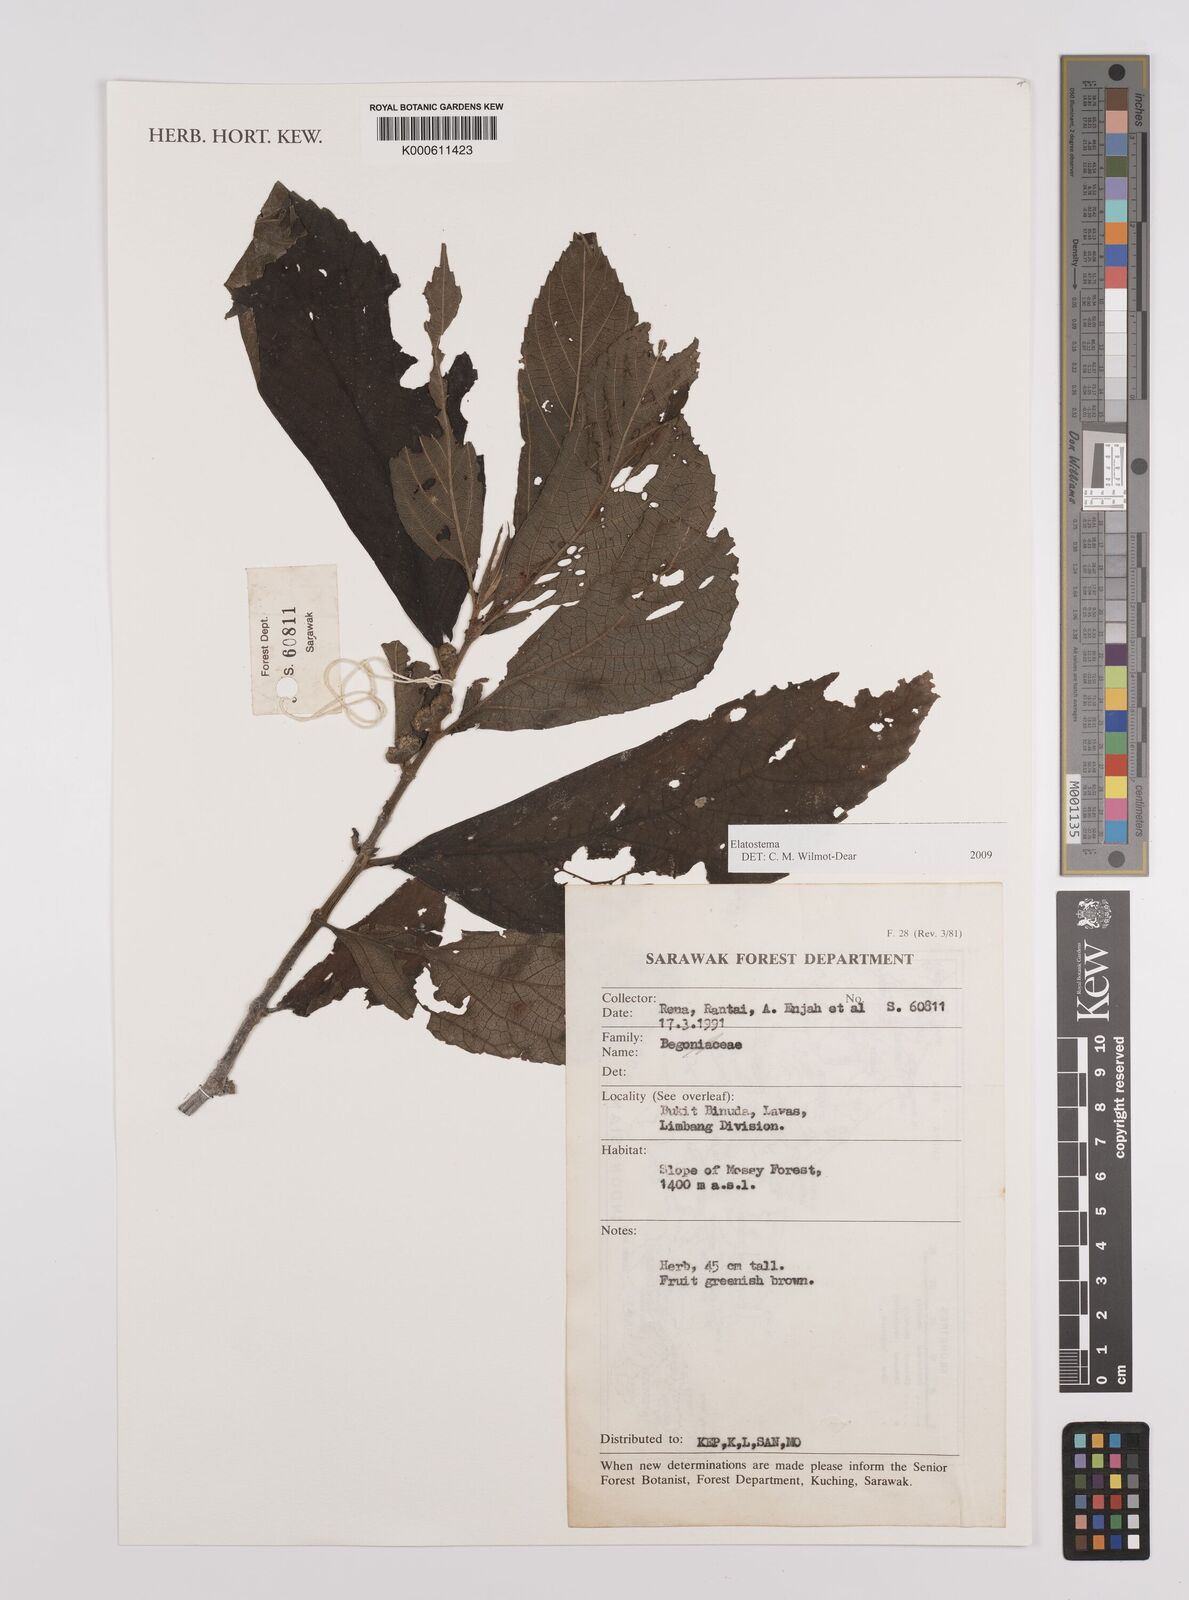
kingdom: Plantae
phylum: Tracheophyta
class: Magnoliopsida
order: Rosales
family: Urticaceae
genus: Elatostema
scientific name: Elatostema
